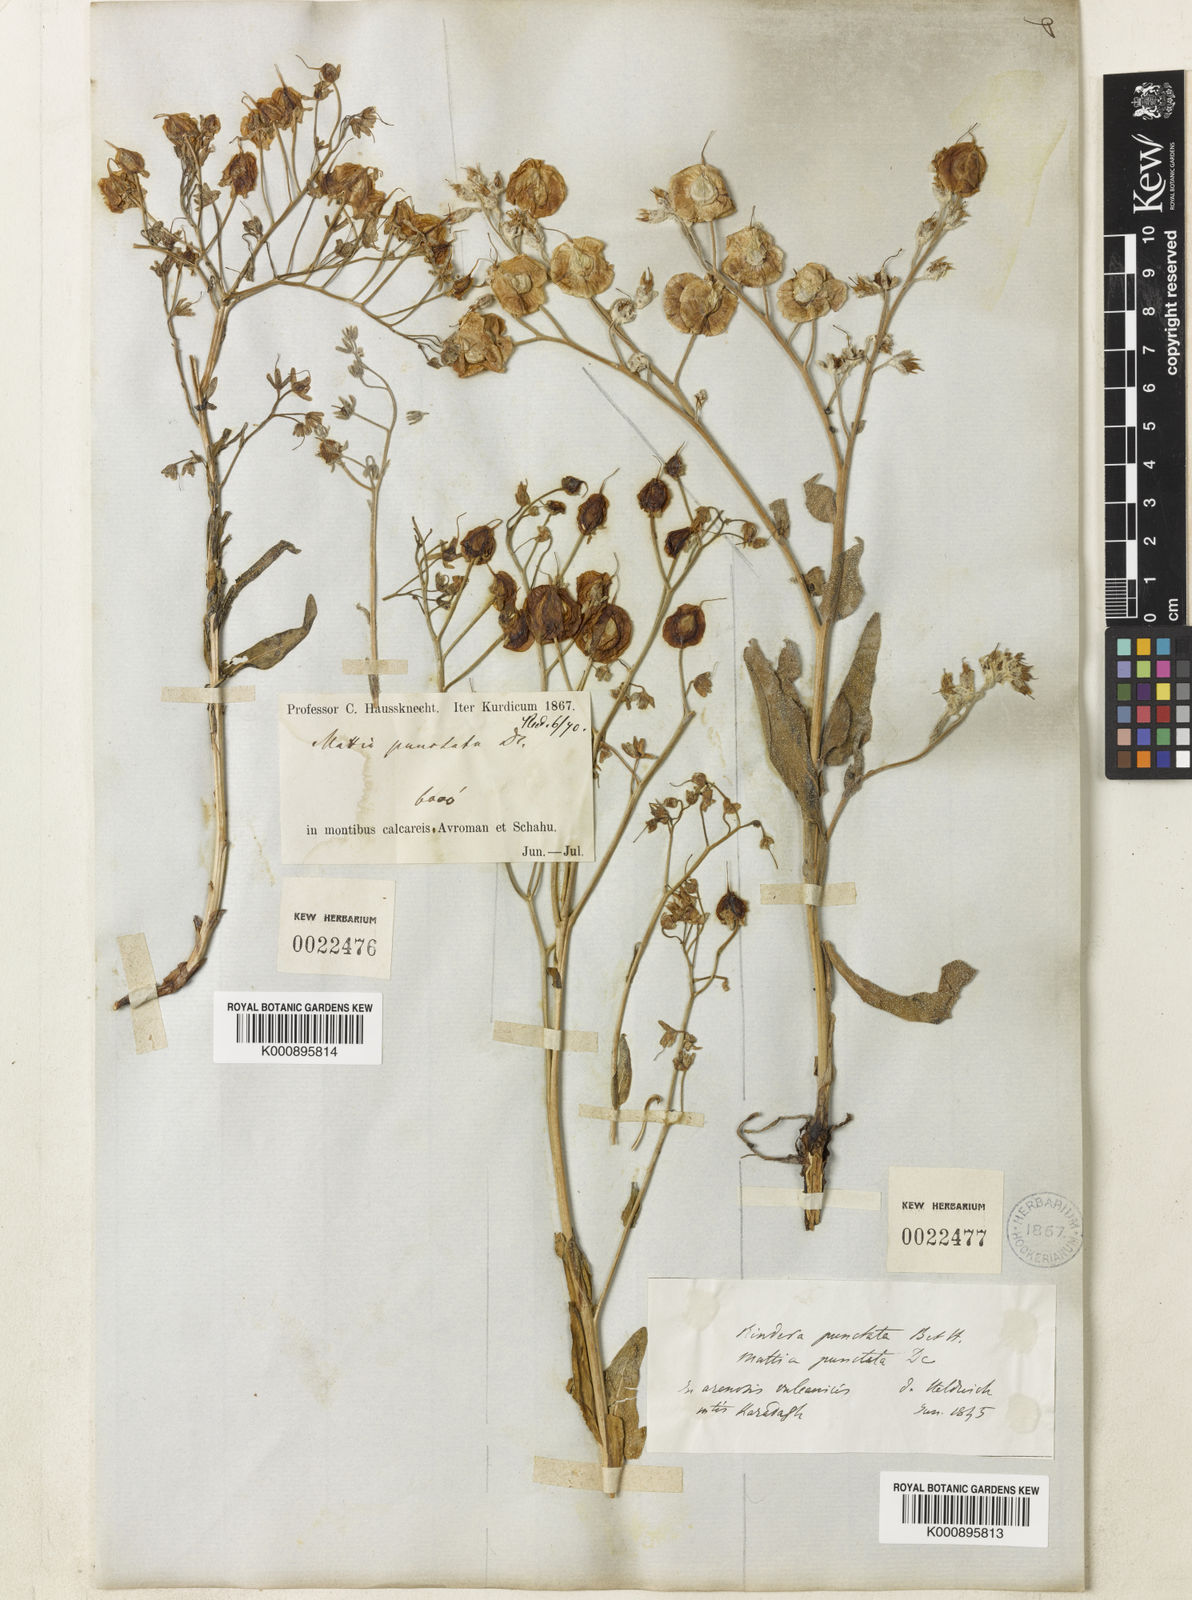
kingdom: Plantae
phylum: Tracheophyta
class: Magnoliopsida
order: Boraginales
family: Boraginaceae
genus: Rindera
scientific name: Rindera lanata
